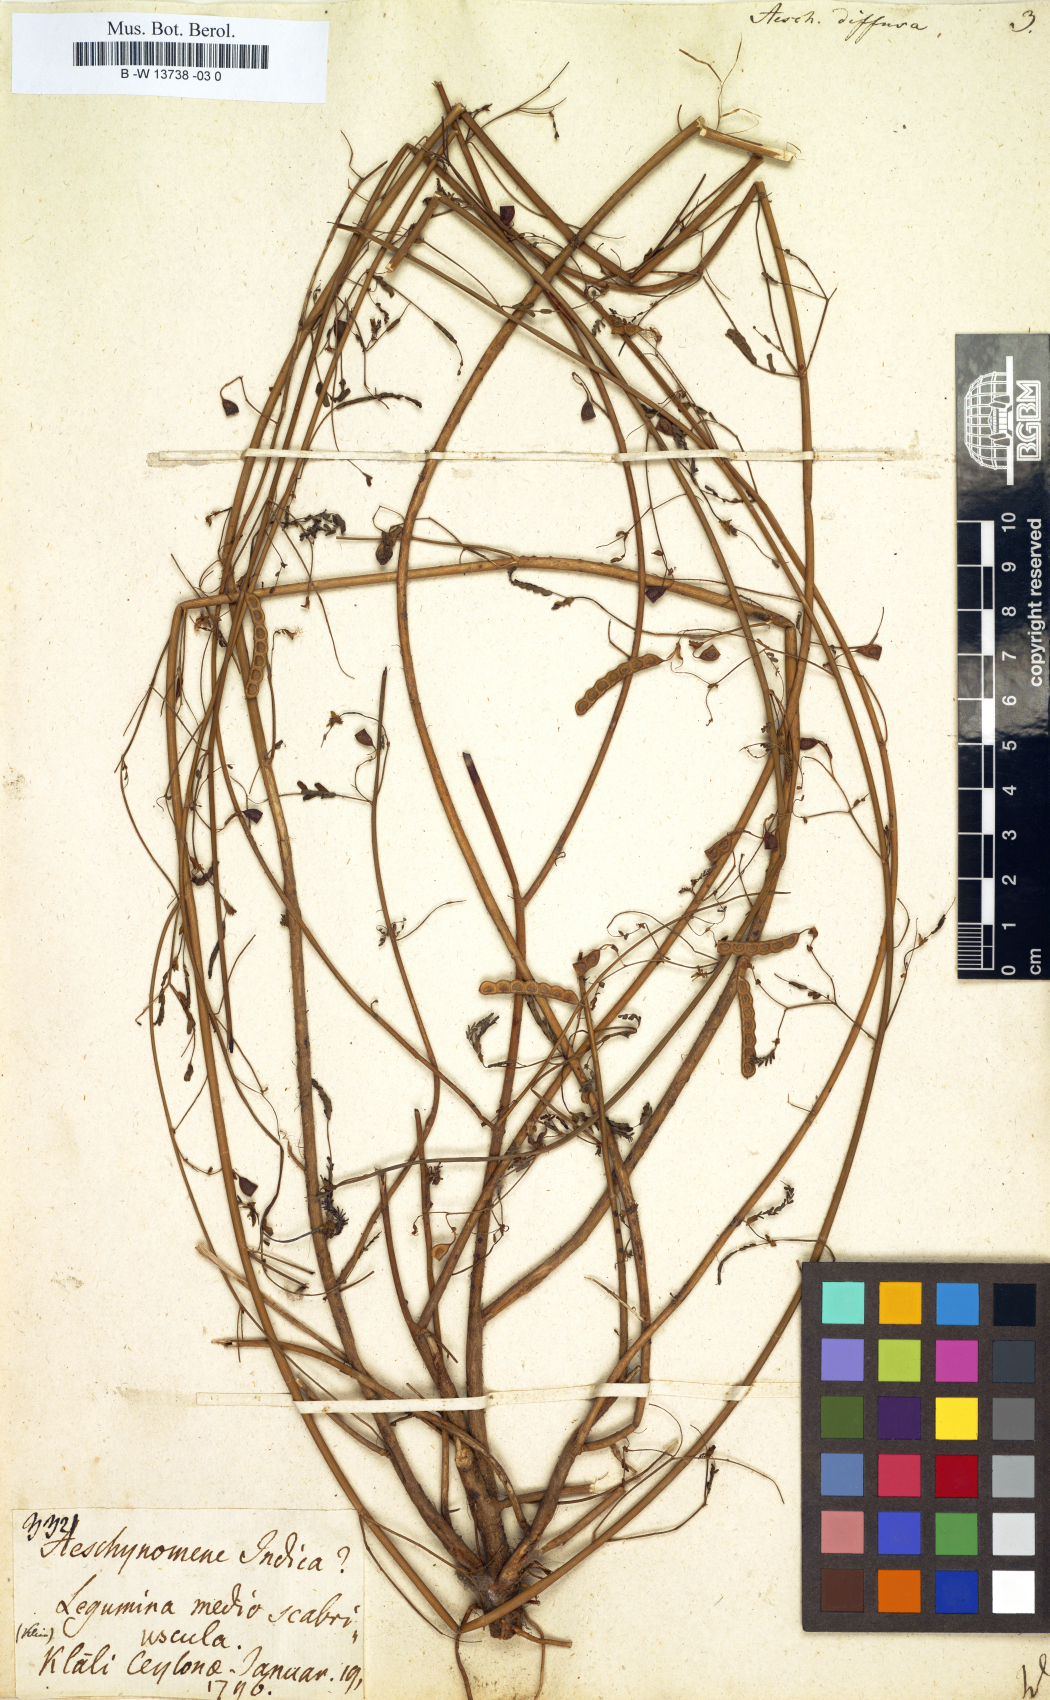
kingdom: Plantae
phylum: Tracheophyta
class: Magnoliopsida
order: Fabales
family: Fabaceae
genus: Aeschynomene
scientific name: Aeschynomene indica
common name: Indian jointvetch
